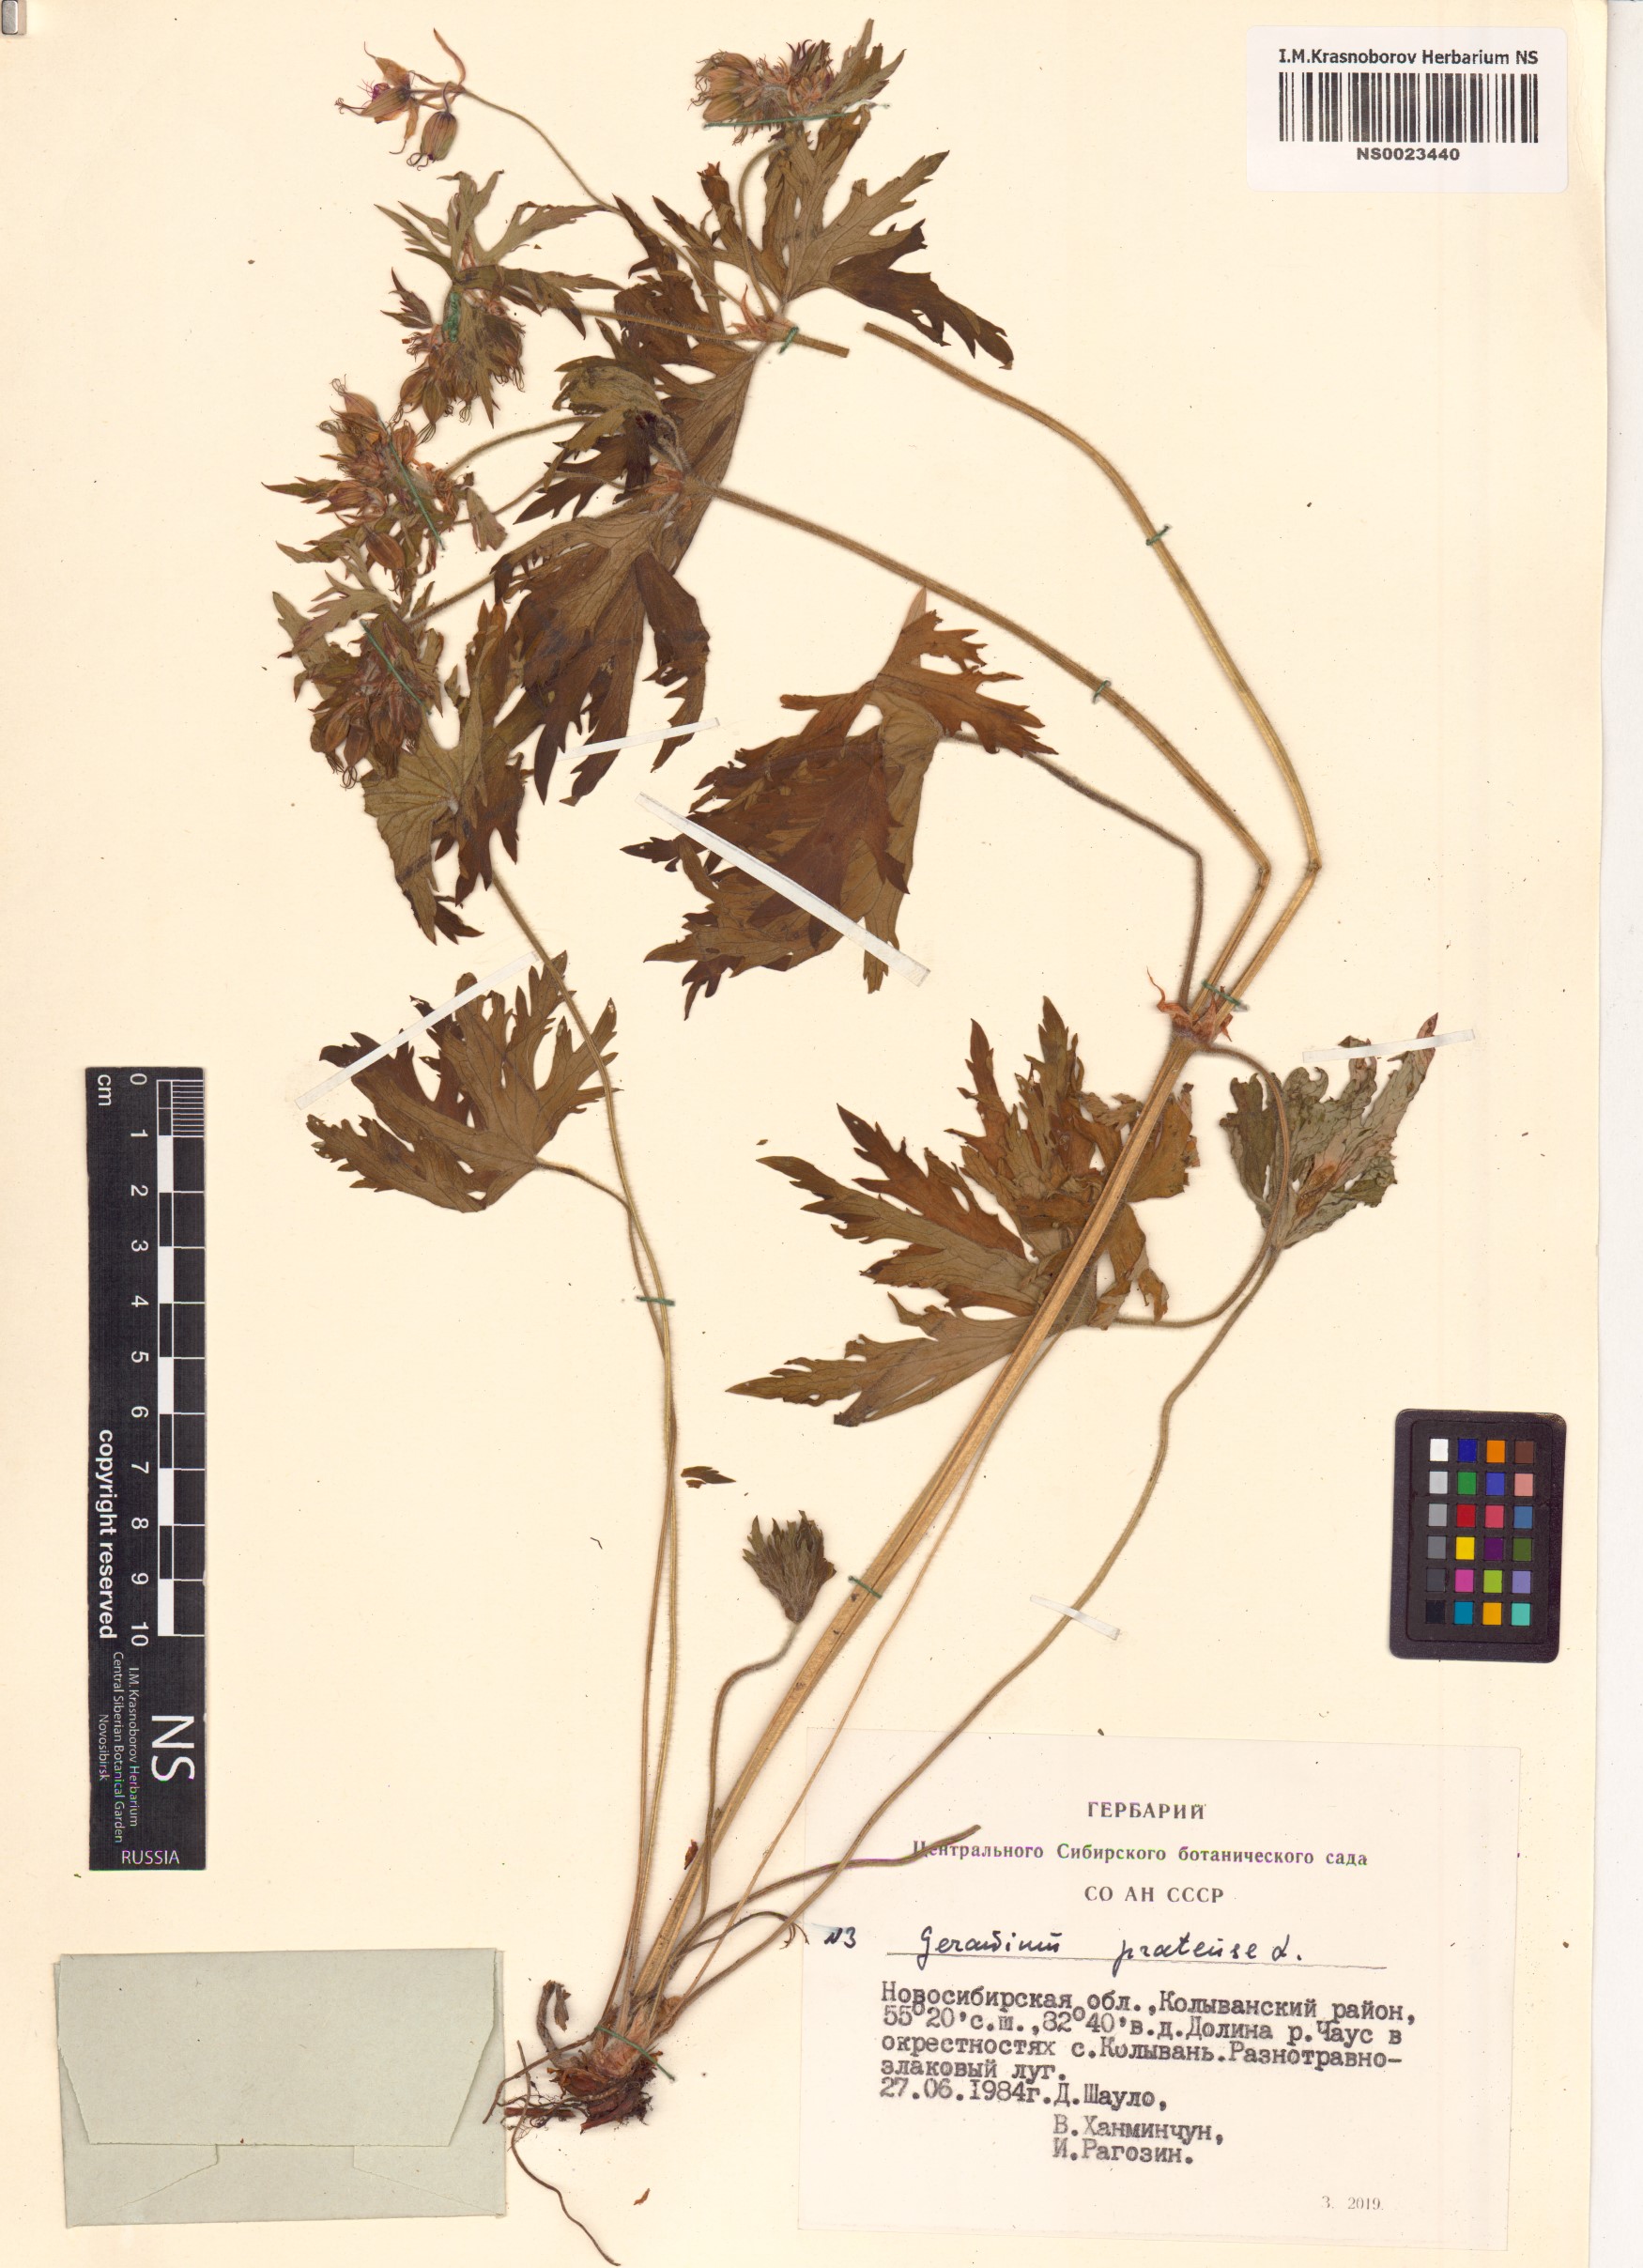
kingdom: Plantae
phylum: Tracheophyta
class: Magnoliopsida
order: Geraniales
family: Geraniaceae
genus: Geranium
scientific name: Geranium pratense
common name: Meadow crane's-bill
